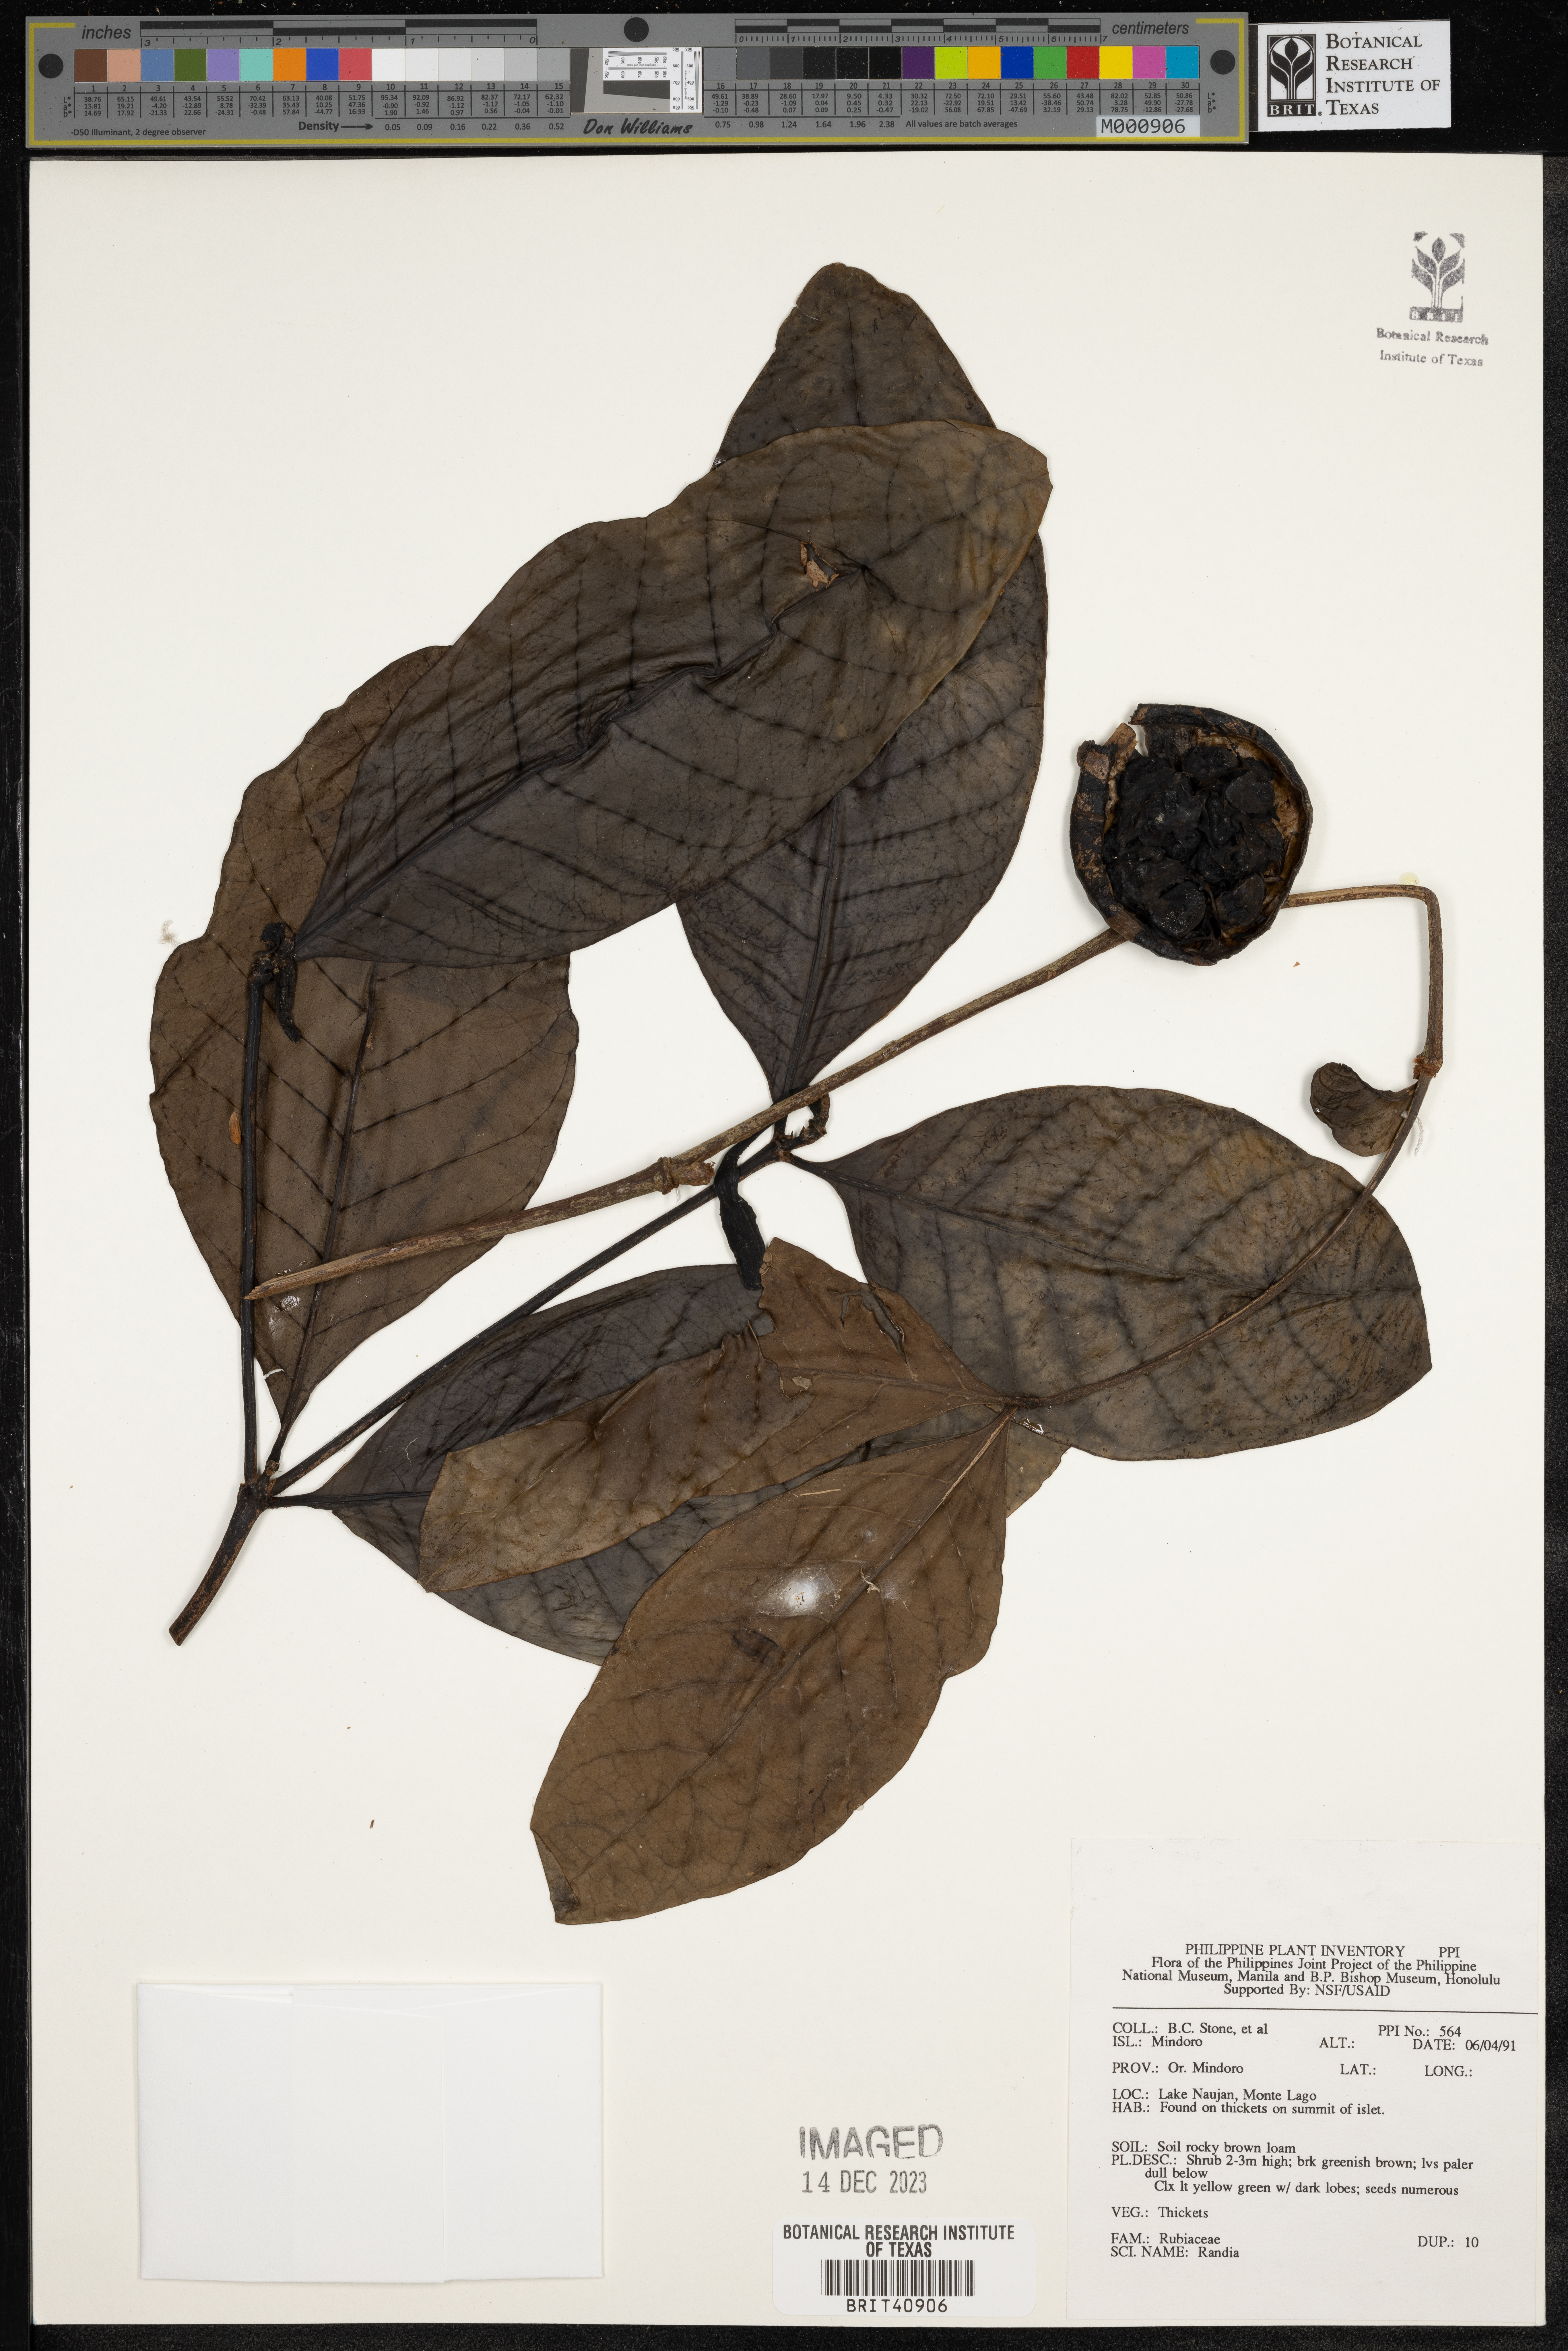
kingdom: Plantae
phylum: Tracheophyta
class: Magnoliopsida
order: Gentianales
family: Rubiaceae
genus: Randia
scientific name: Randia
